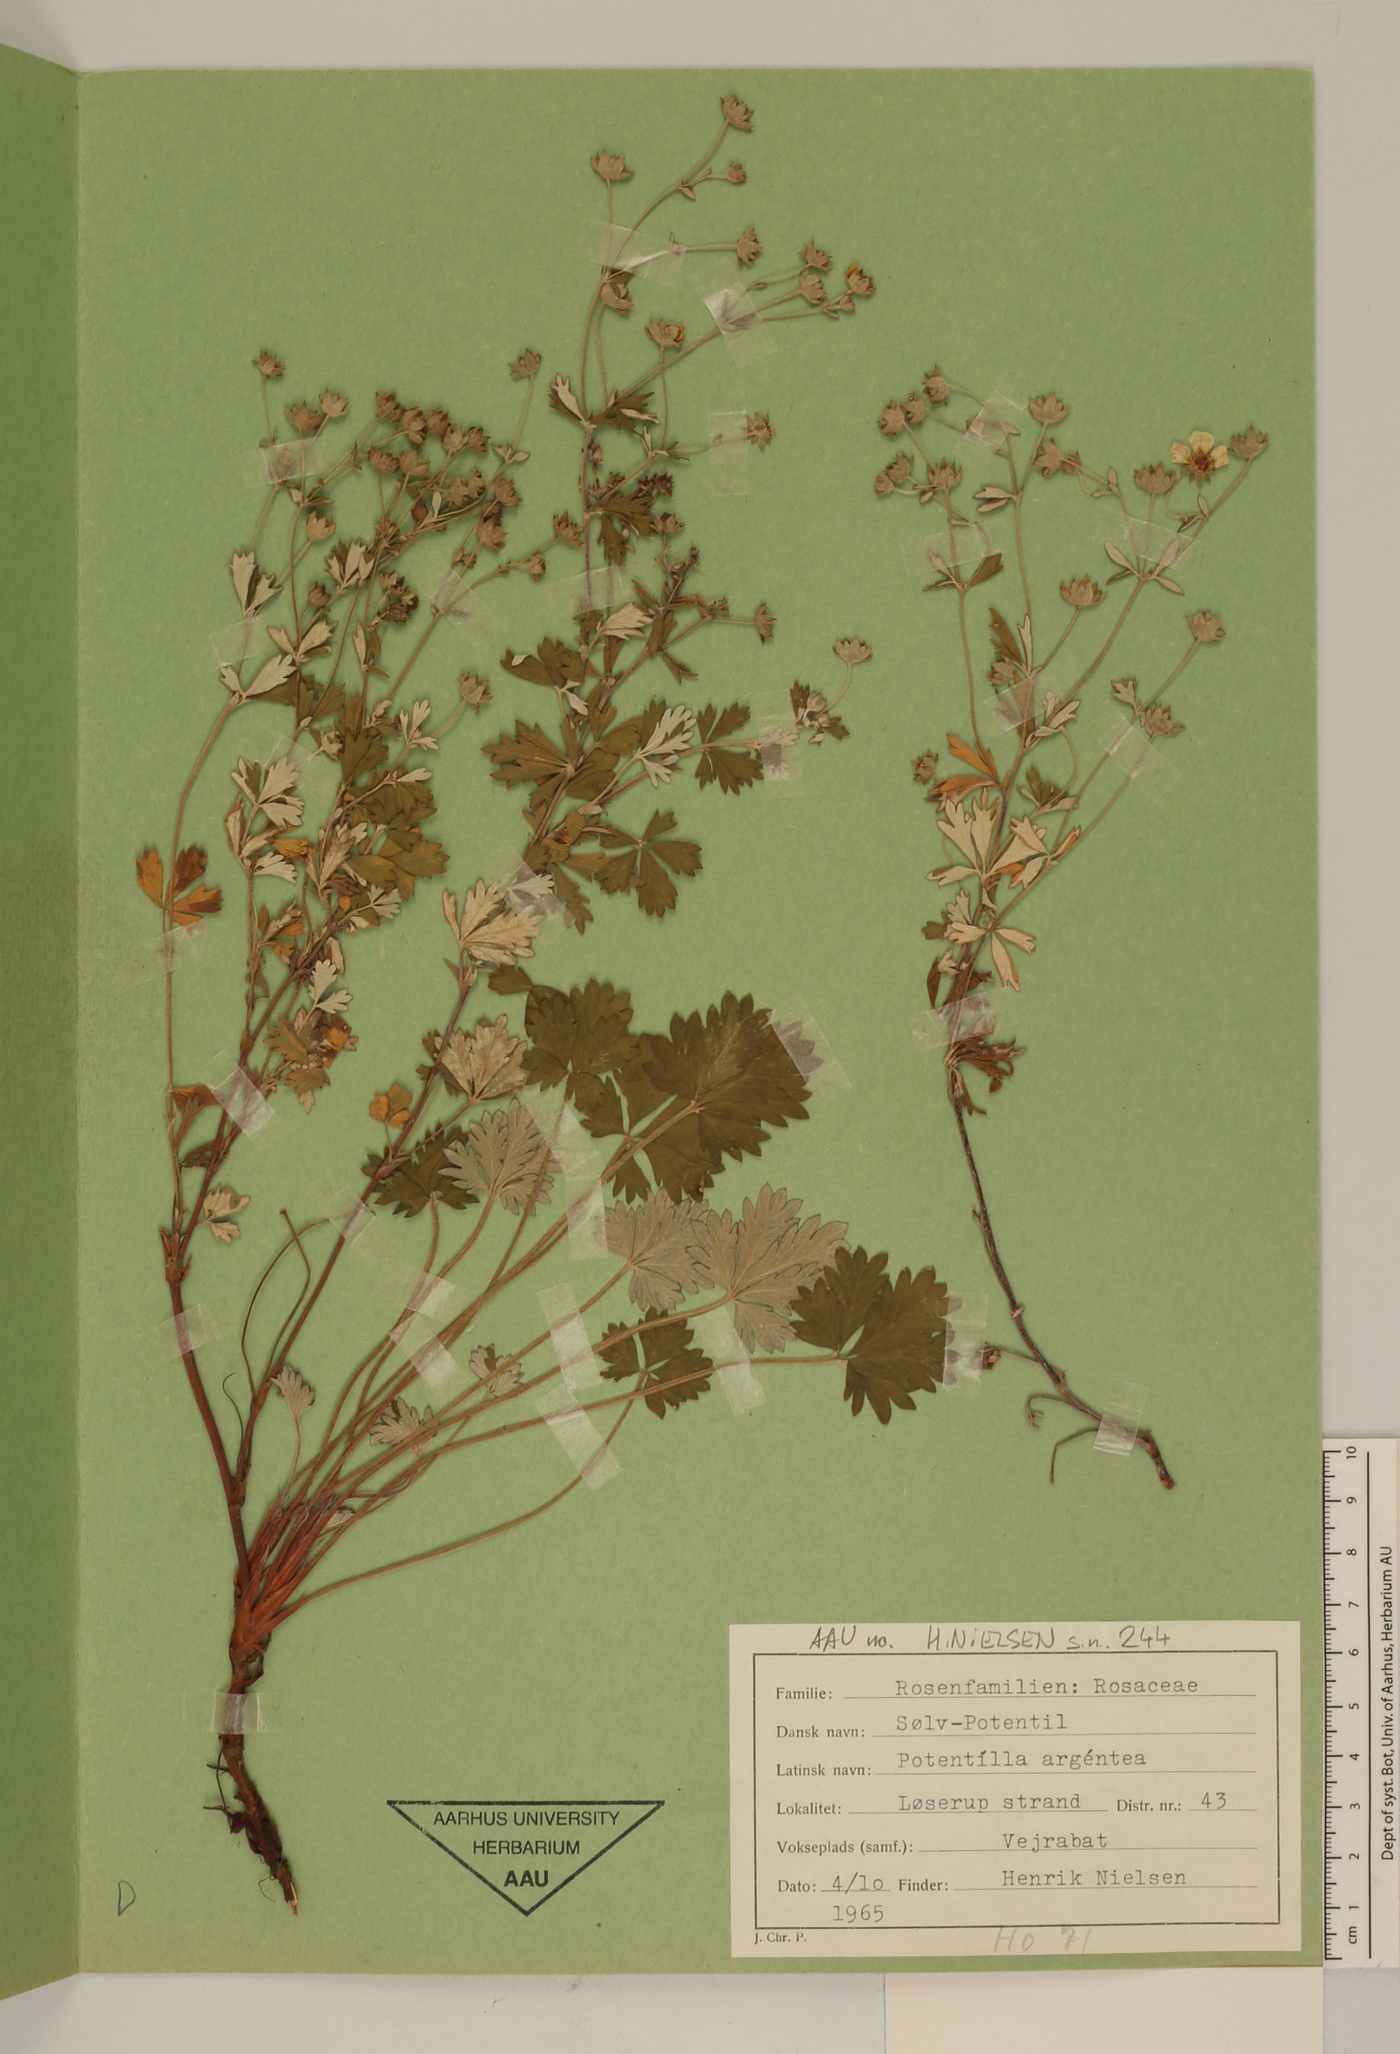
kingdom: Plantae
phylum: Tracheophyta
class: Magnoliopsida
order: Rosales
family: Rosaceae
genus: Potentilla
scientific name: Potentilla argentea
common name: Hoary cinquefoil
